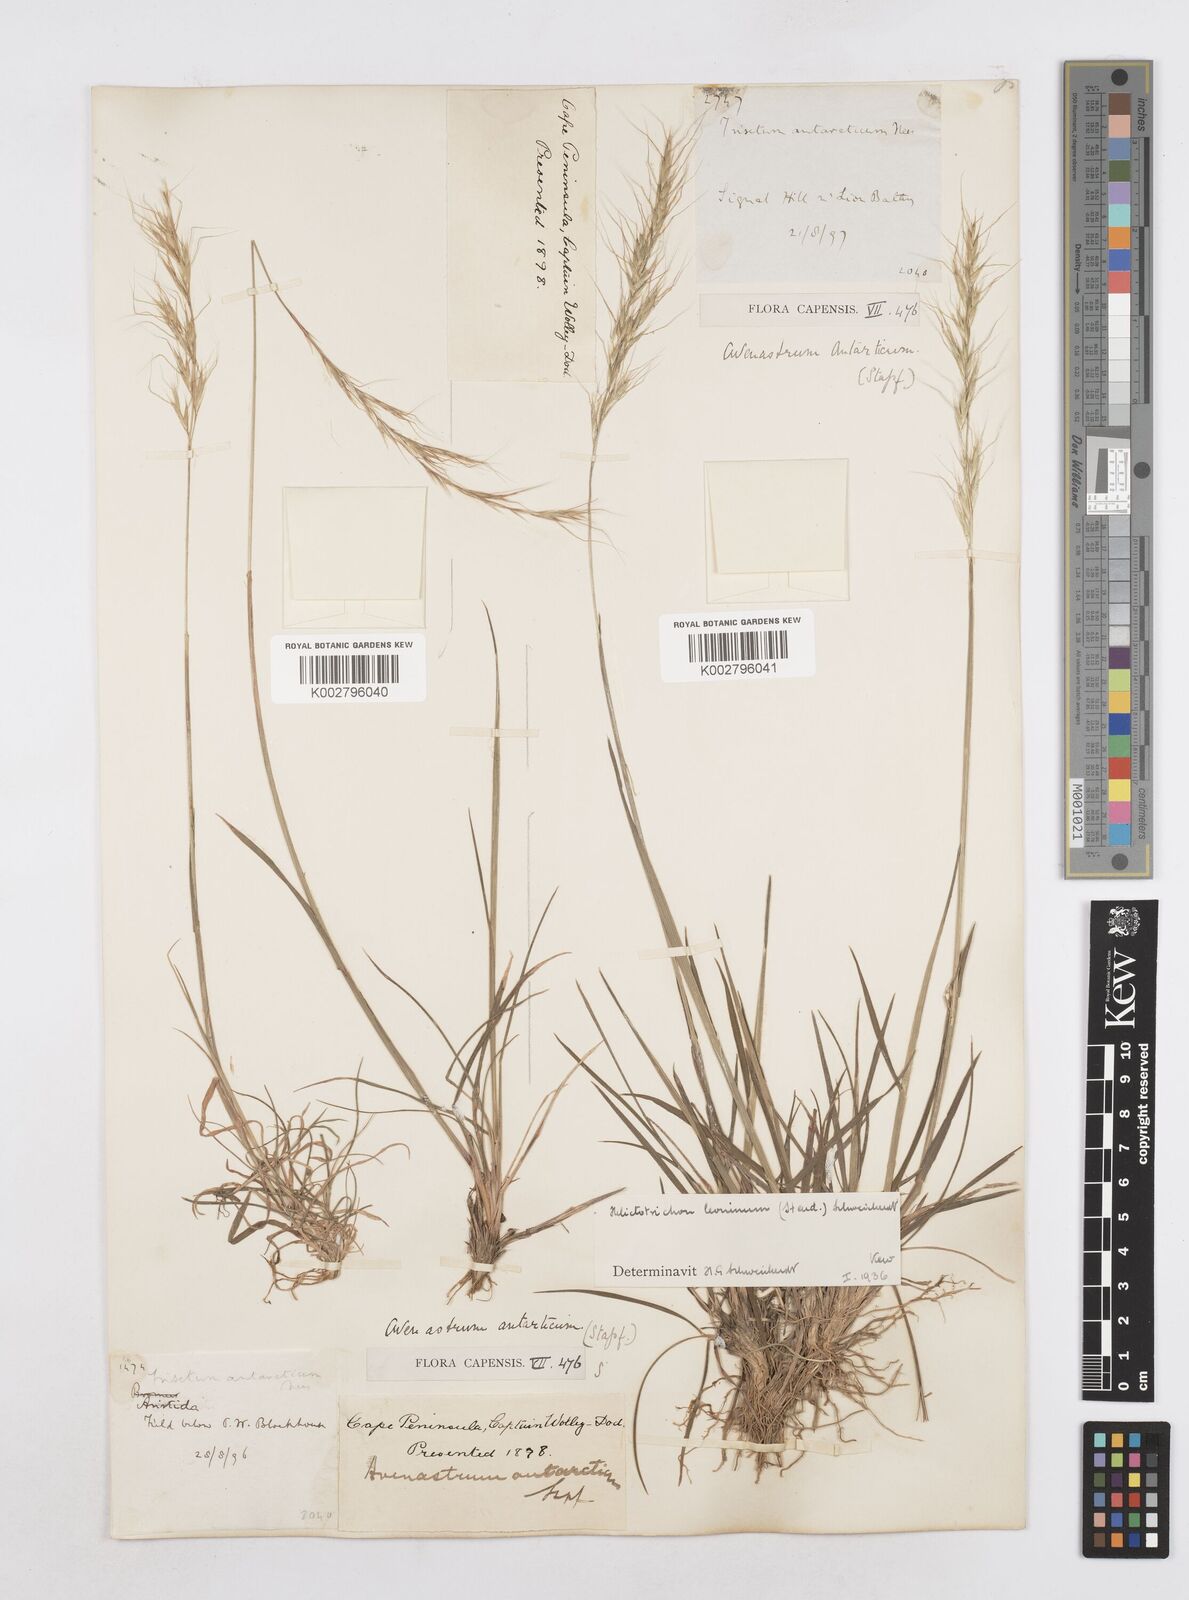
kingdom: Plantae
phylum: Tracheophyta
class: Liliopsida
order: Poales
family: Poaceae
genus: Trisetopsis
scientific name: Trisetopsis leonina
